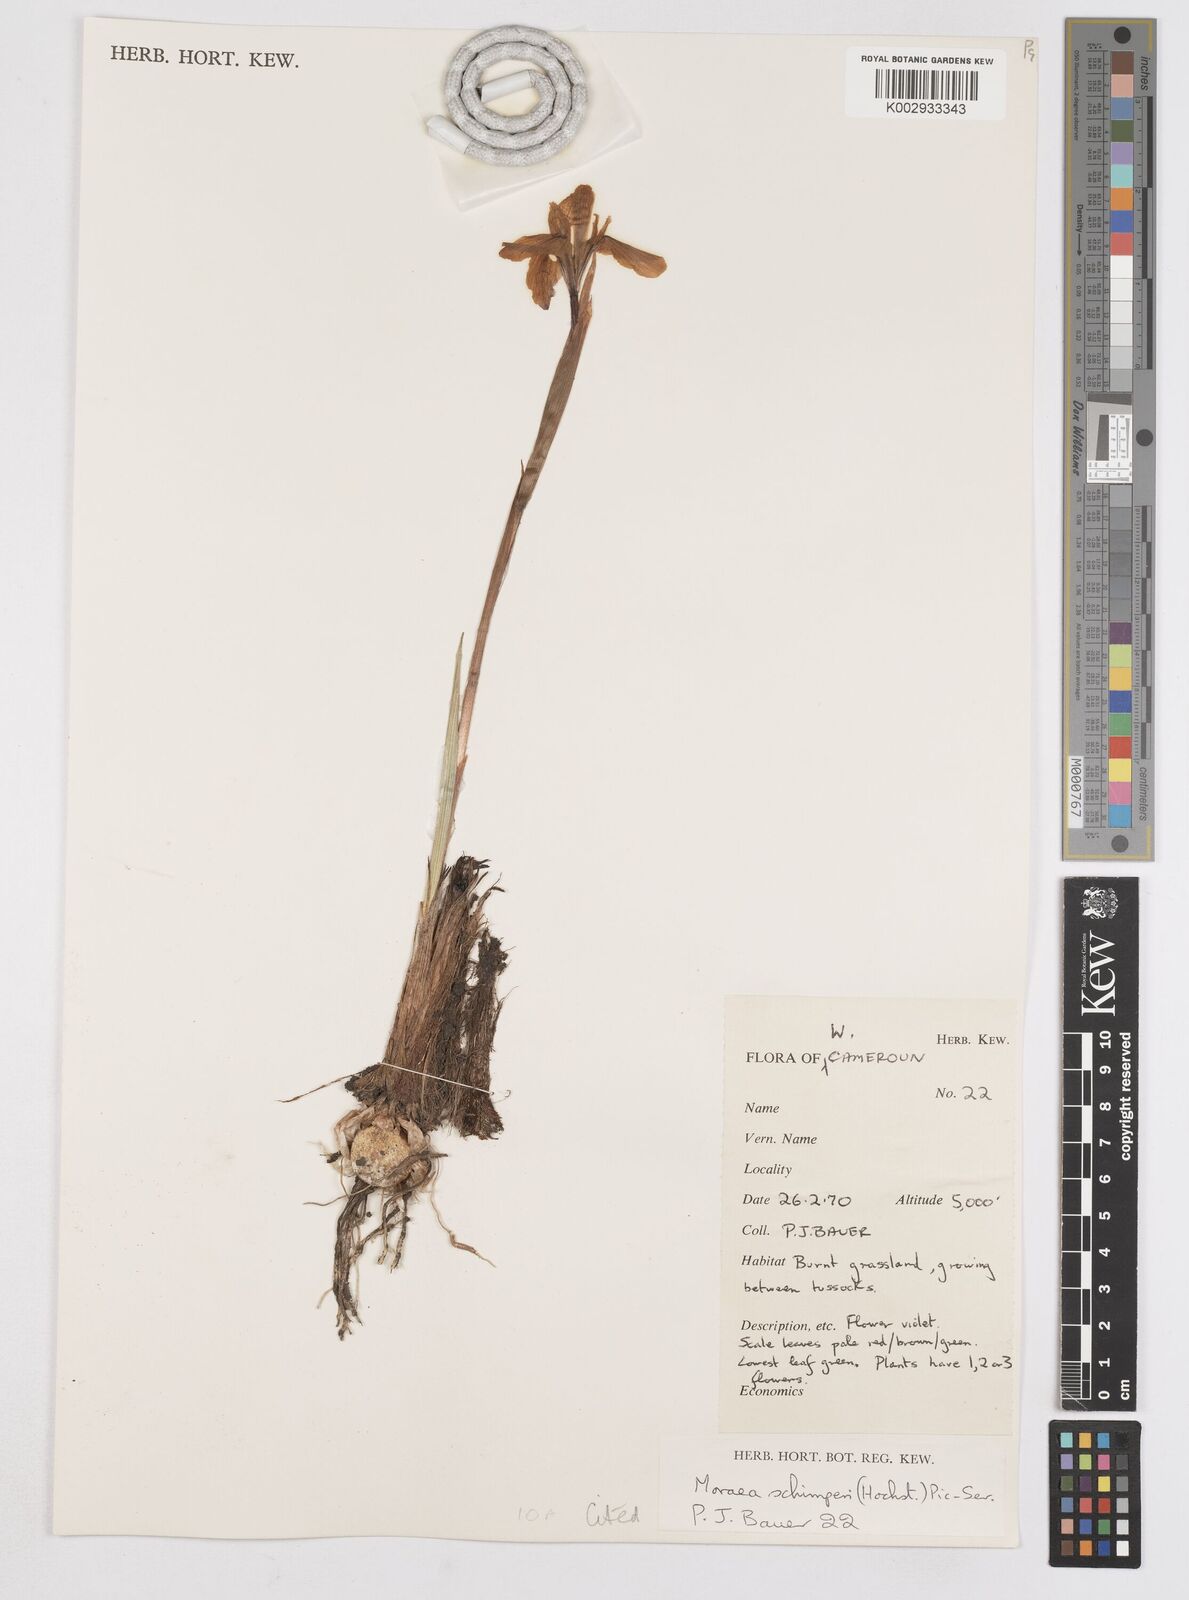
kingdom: Plantae
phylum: Tracheophyta
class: Liliopsida
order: Asparagales
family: Iridaceae
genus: Moraea
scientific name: Moraea schimperi
